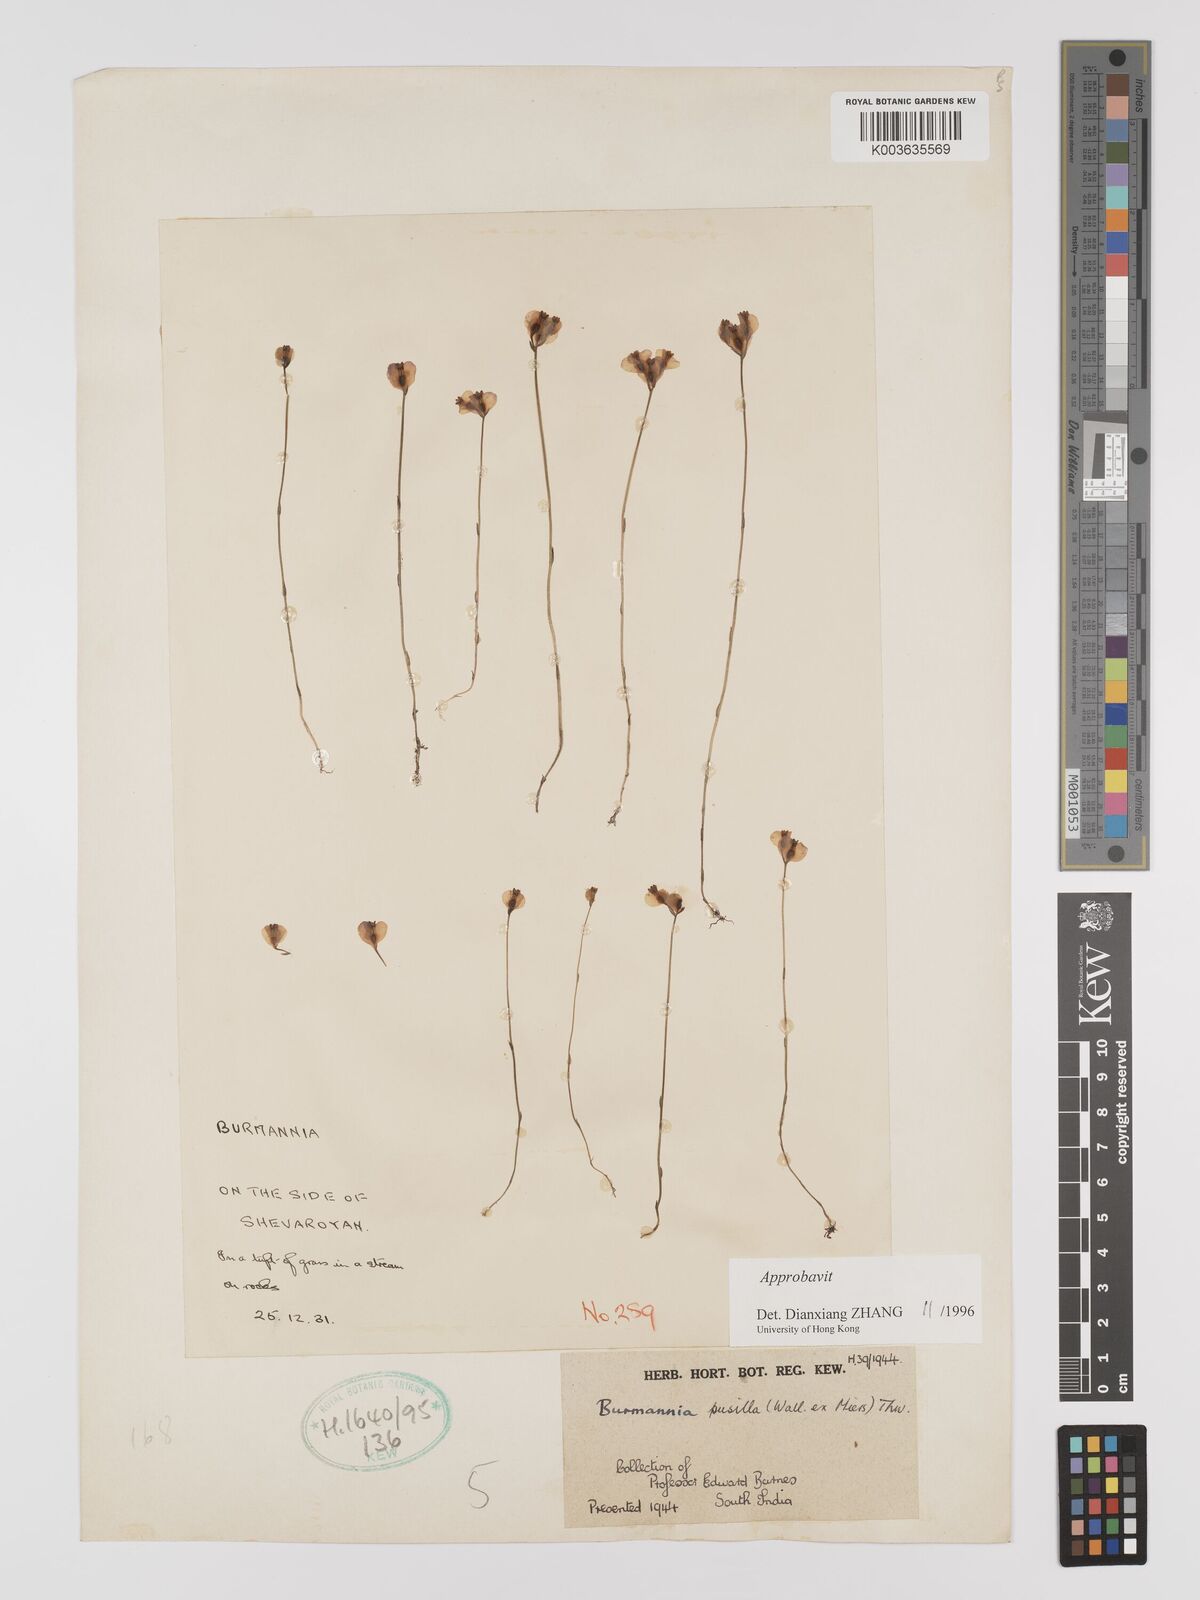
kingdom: Plantae
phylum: Tracheophyta
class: Liliopsida
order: Dioscoreales
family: Burmanniaceae
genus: Burmannia
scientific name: Burmannia pusilla
